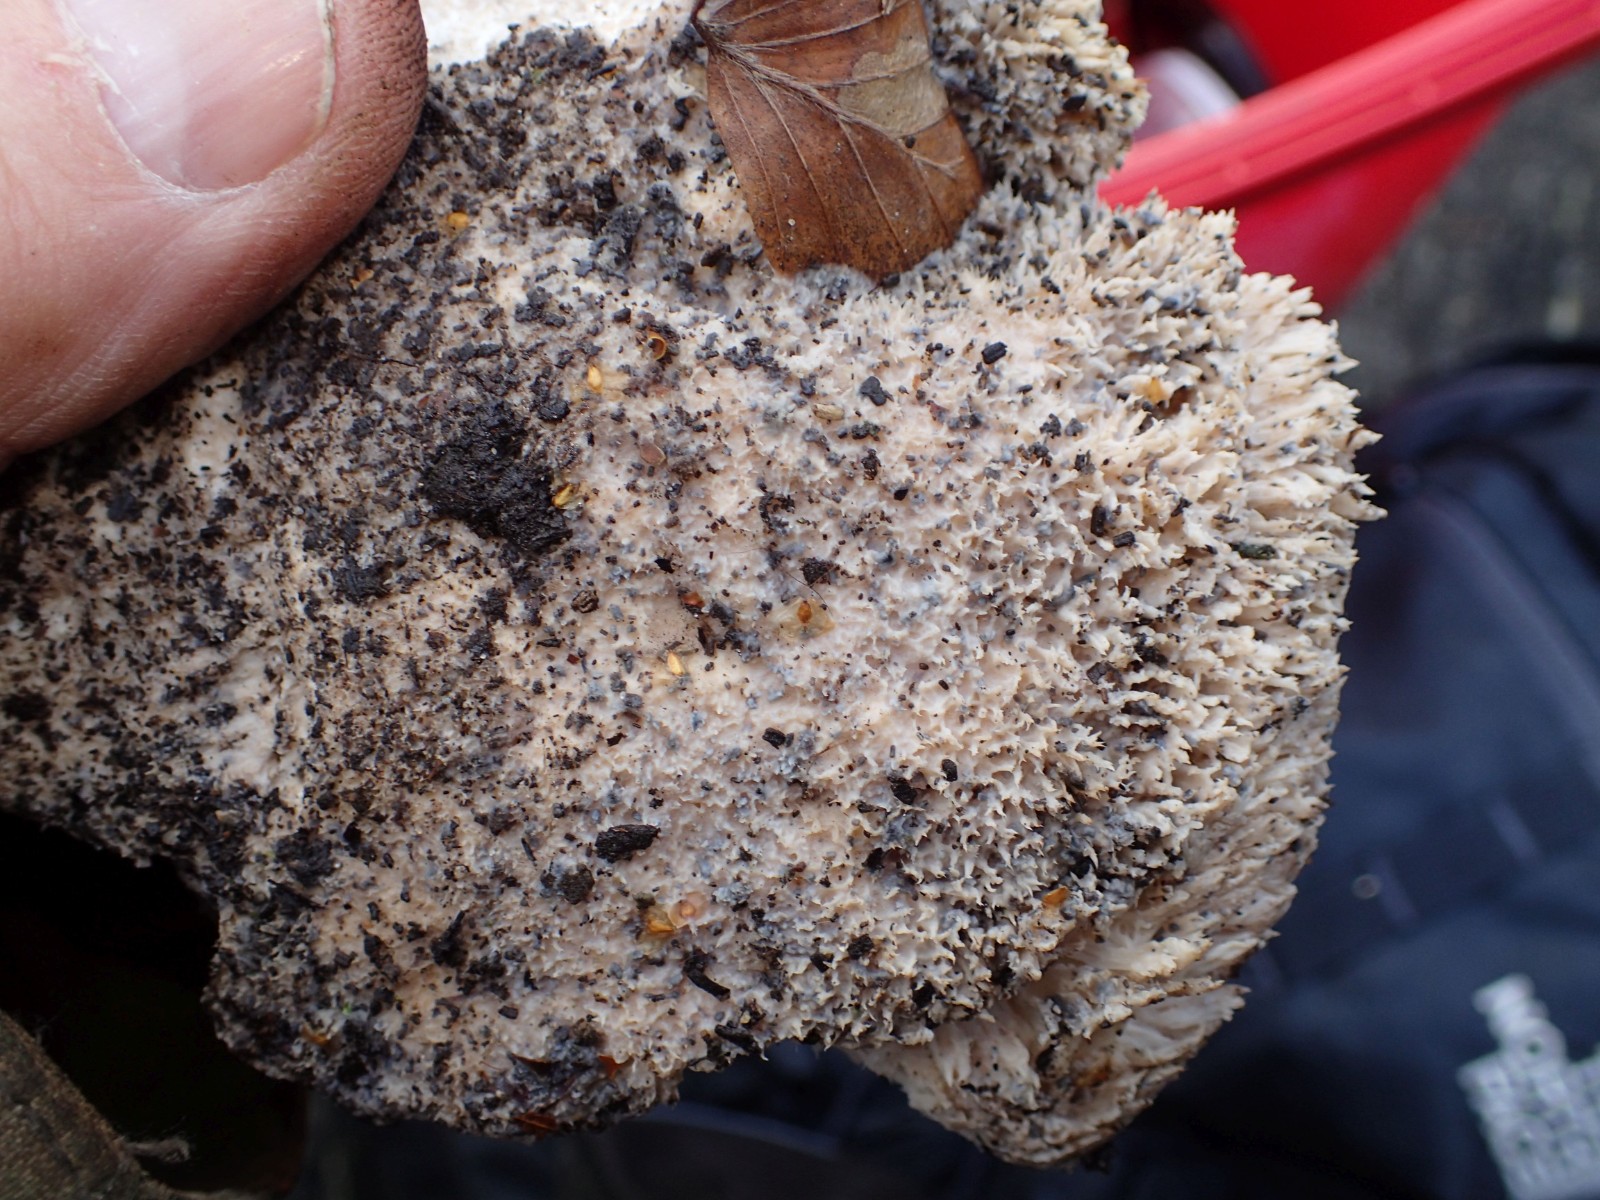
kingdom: Fungi
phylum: Basidiomycota
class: Agaricomycetes
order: Polyporales
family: Fomitopsidaceae
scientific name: Fomitopsidaceae
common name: hovporesvampfamilien
